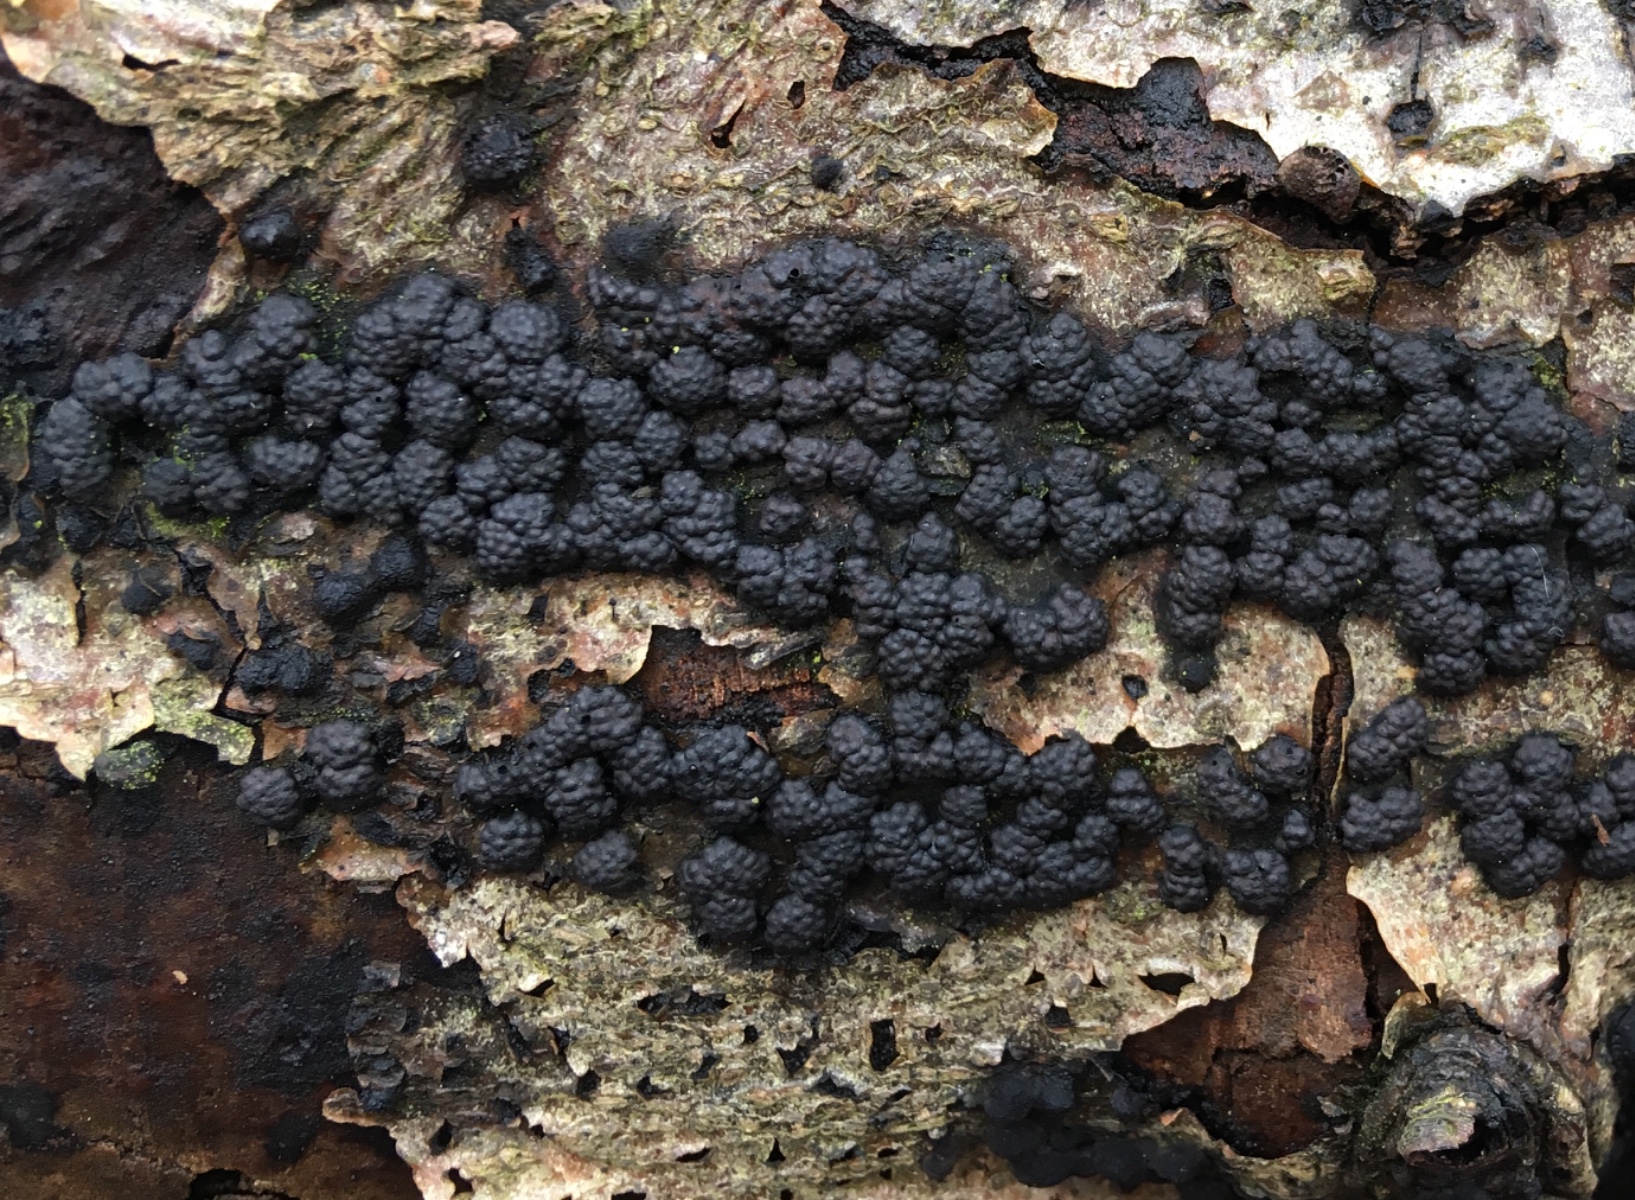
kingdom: Fungi
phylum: Ascomycota
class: Sordariomycetes
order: Xylariales
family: Hypoxylaceae
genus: Jackrogersella
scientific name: Jackrogersella cohaerens
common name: sammenflydende kulbær
